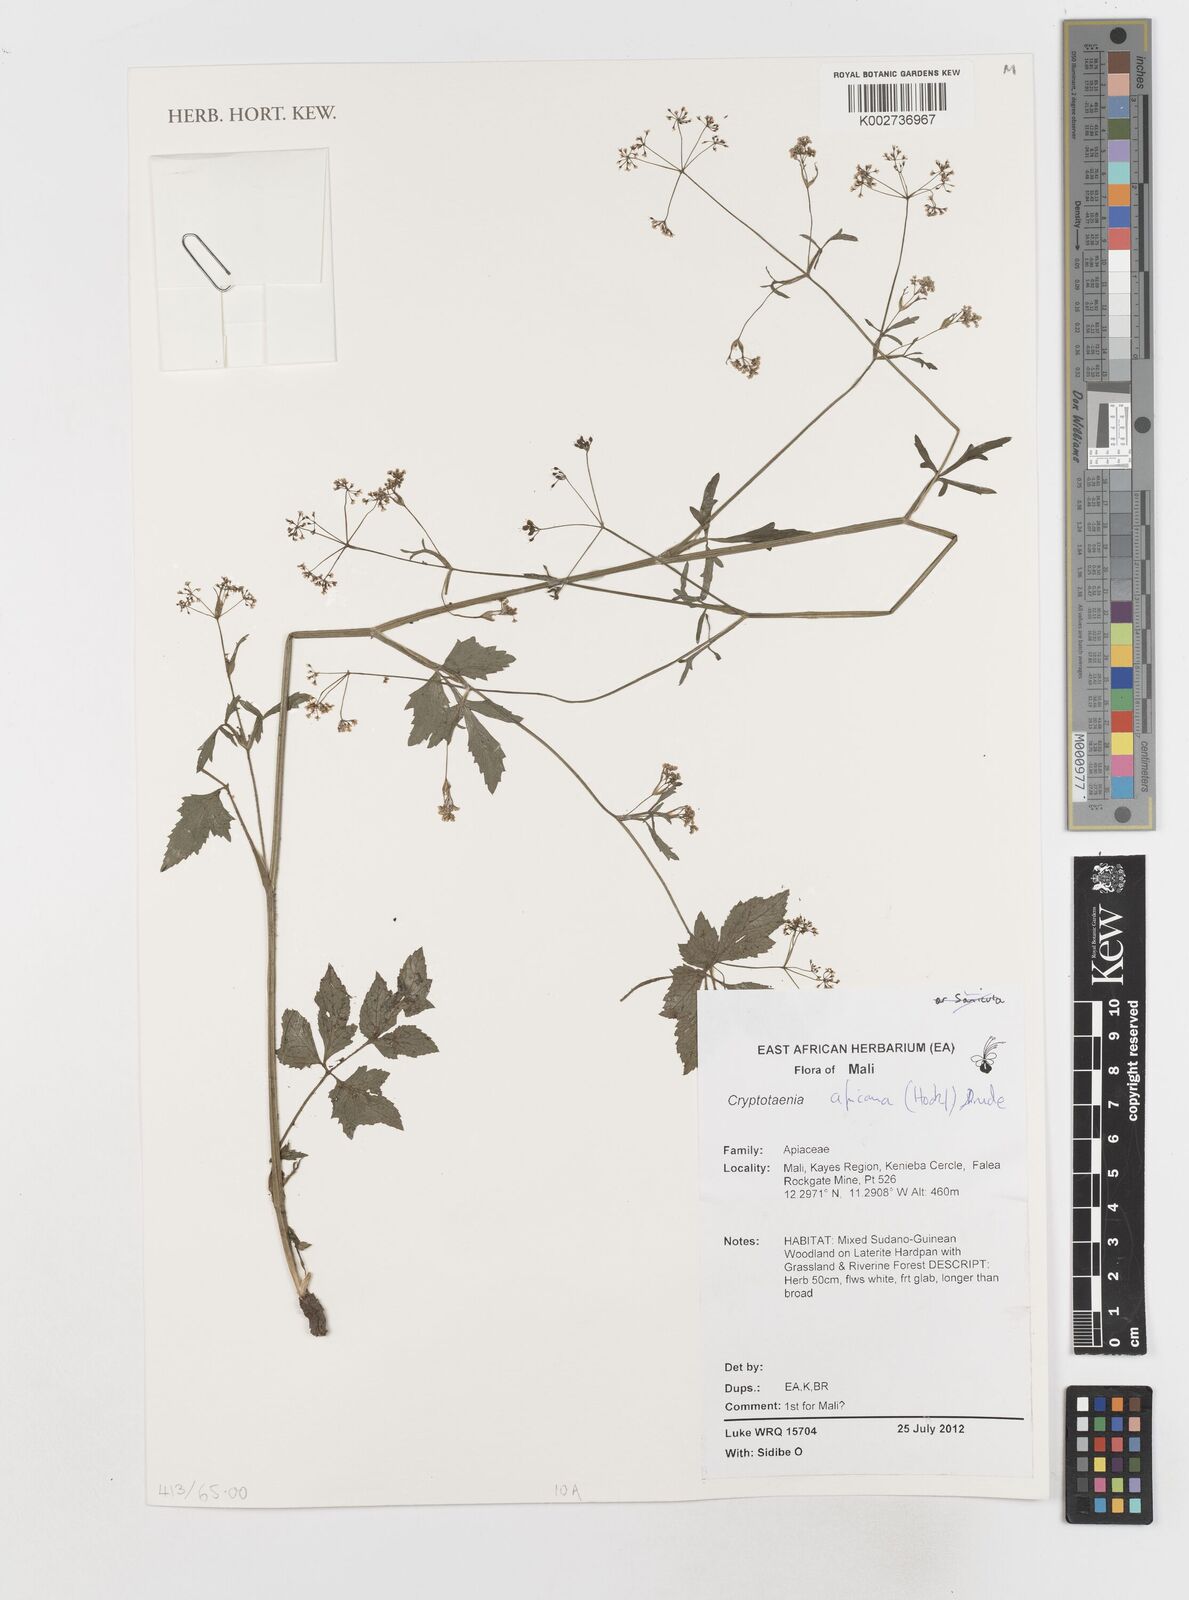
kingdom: Plantae
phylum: Tracheophyta
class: Magnoliopsida
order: Apiales
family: Apiaceae
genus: Cryptotaenia
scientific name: Cryptotaenia africana
